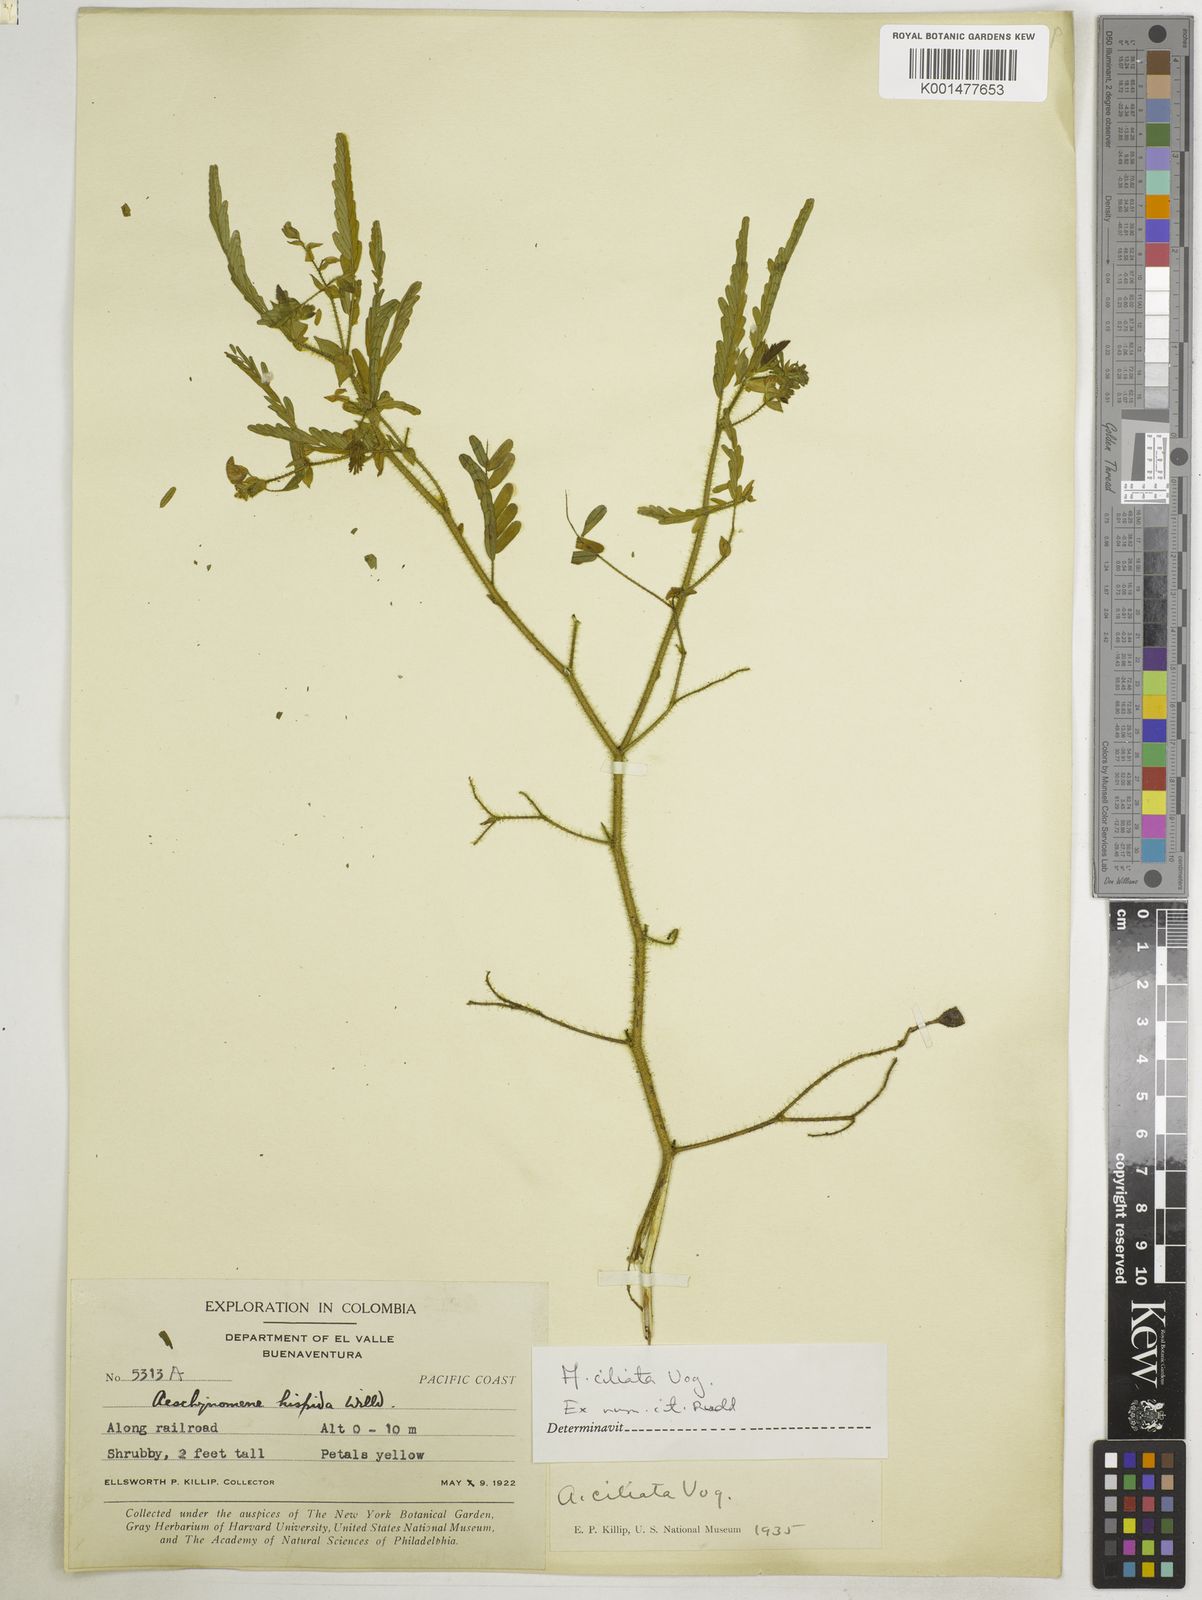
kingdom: Plantae
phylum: Tracheophyta
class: Magnoliopsida
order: Fabales
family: Fabaceae
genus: Aeschynomene
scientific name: Aeschynomene ciliata
